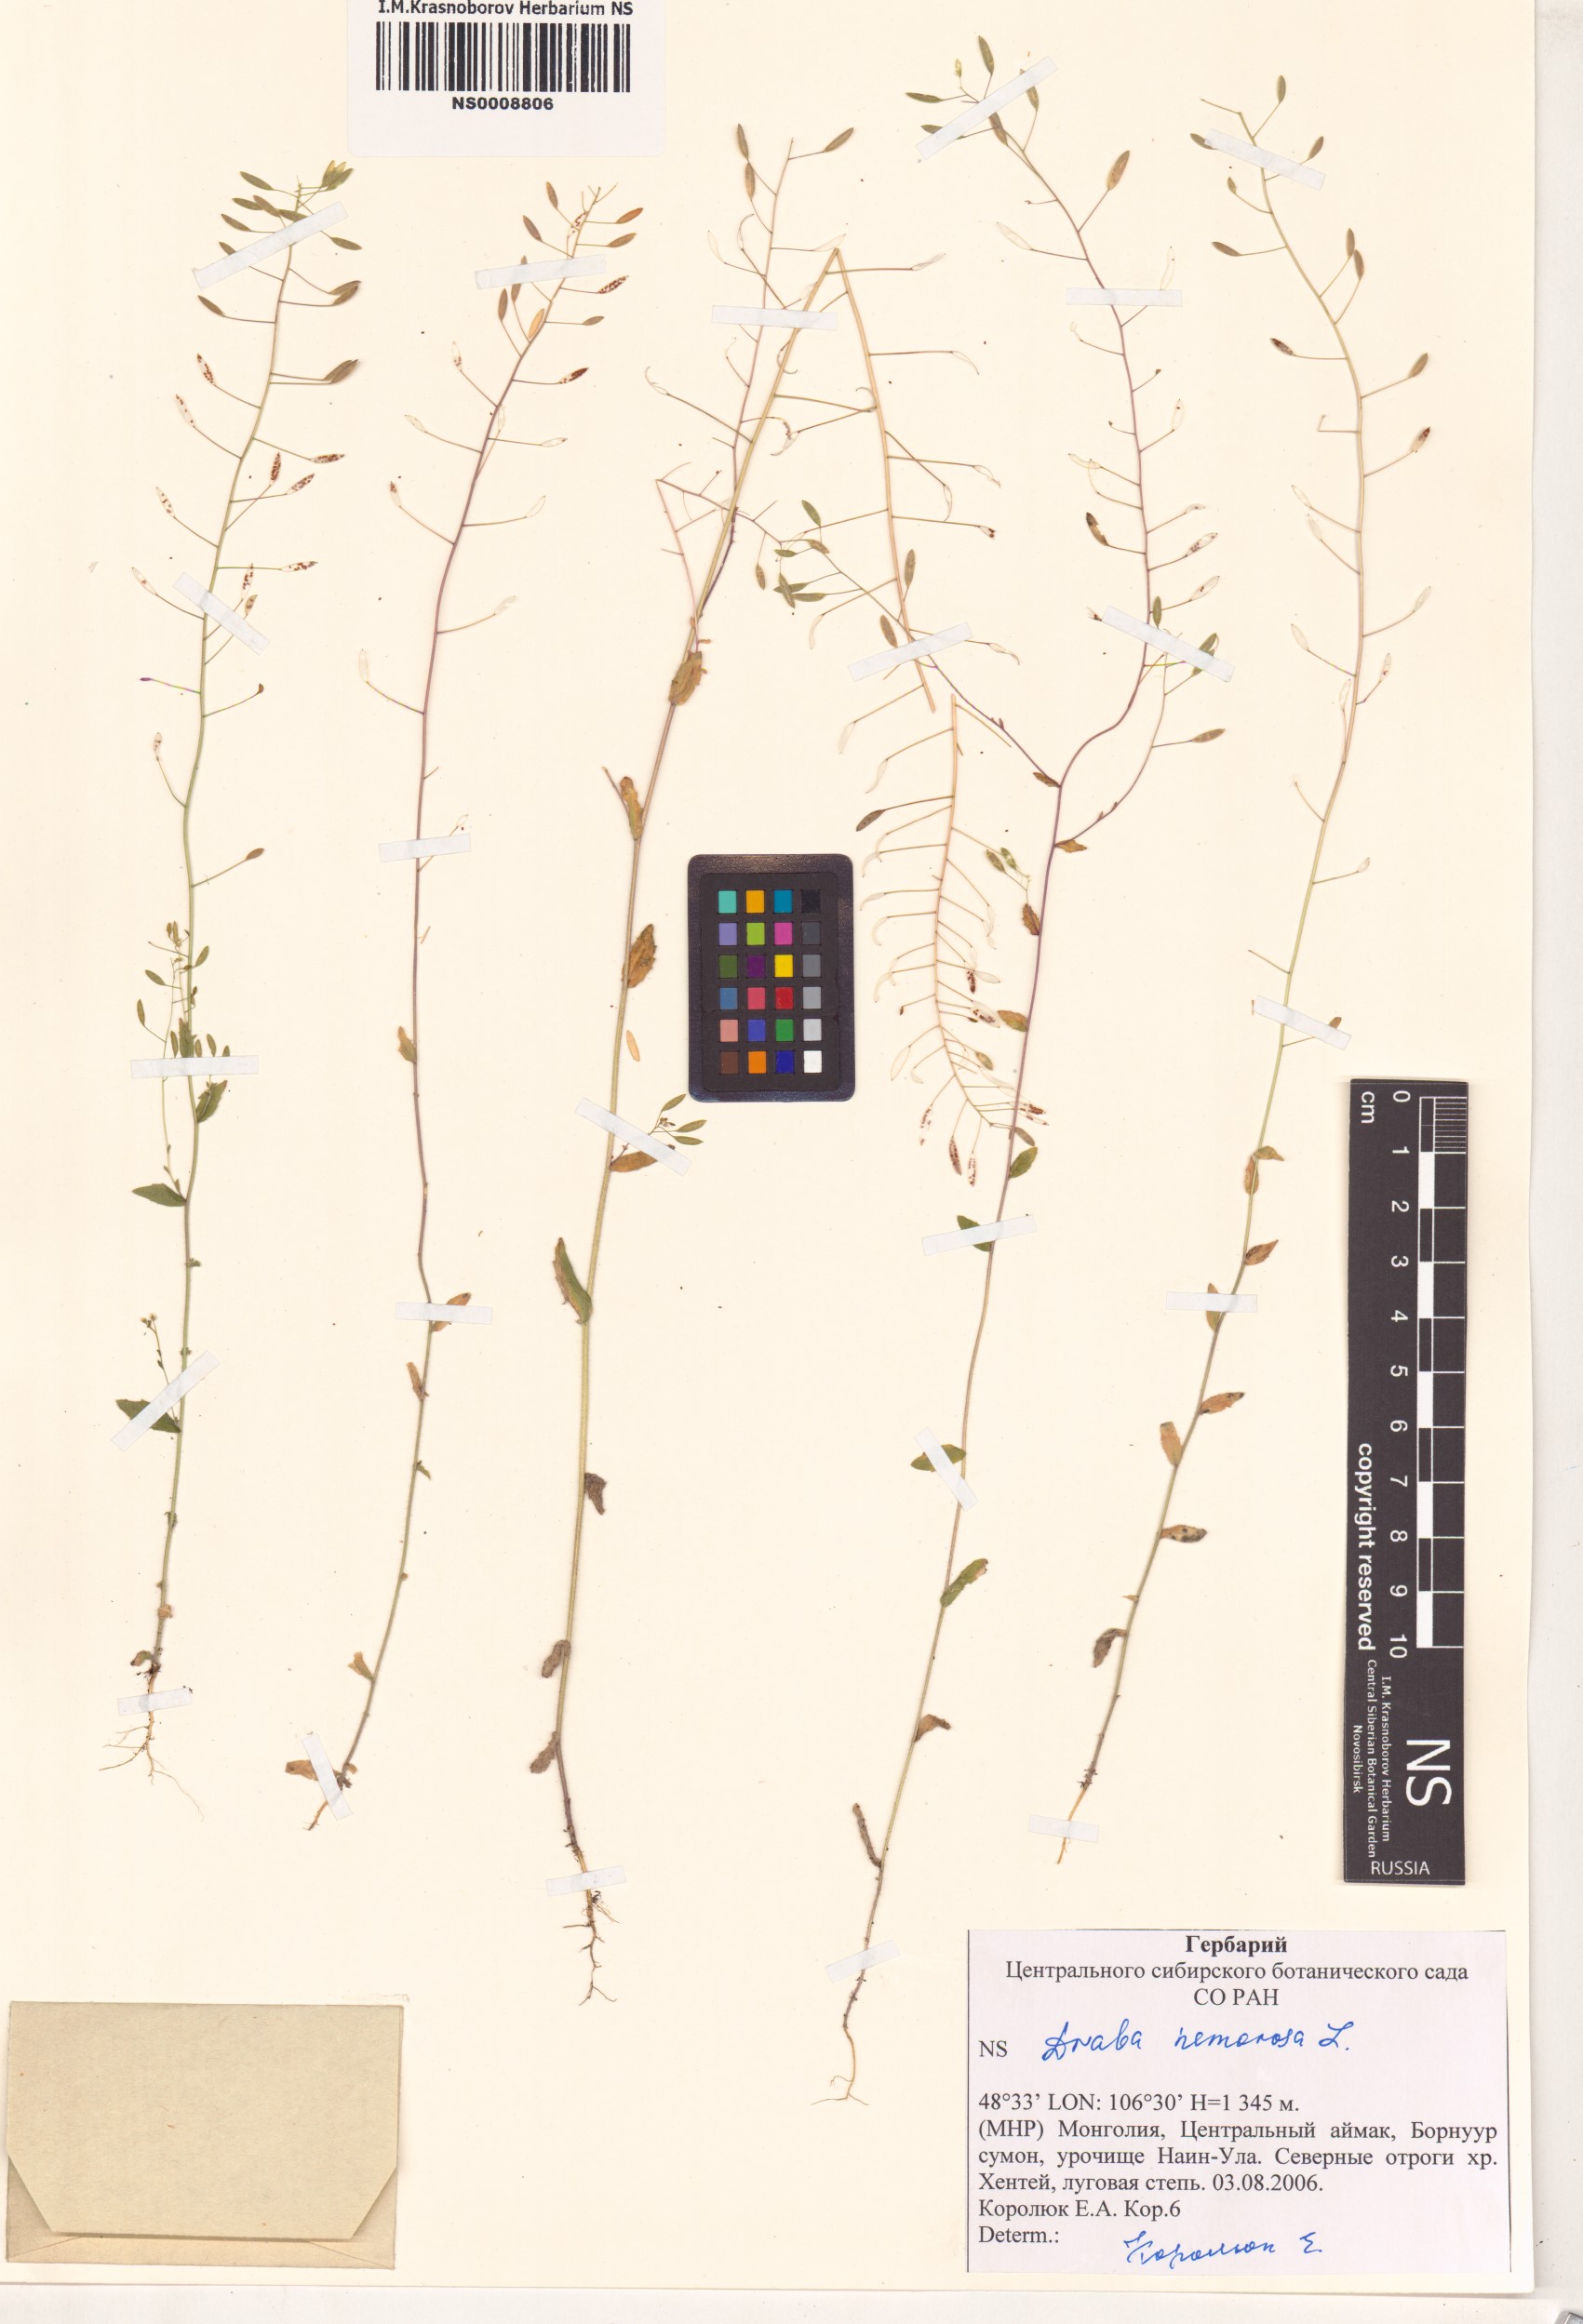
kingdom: Plantae
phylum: Tracheophyta
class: Magnoliopsida
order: Brassicales
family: Brassicaceae
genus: Draba
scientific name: Draba nemorosa
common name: Wood whitlow-grass
